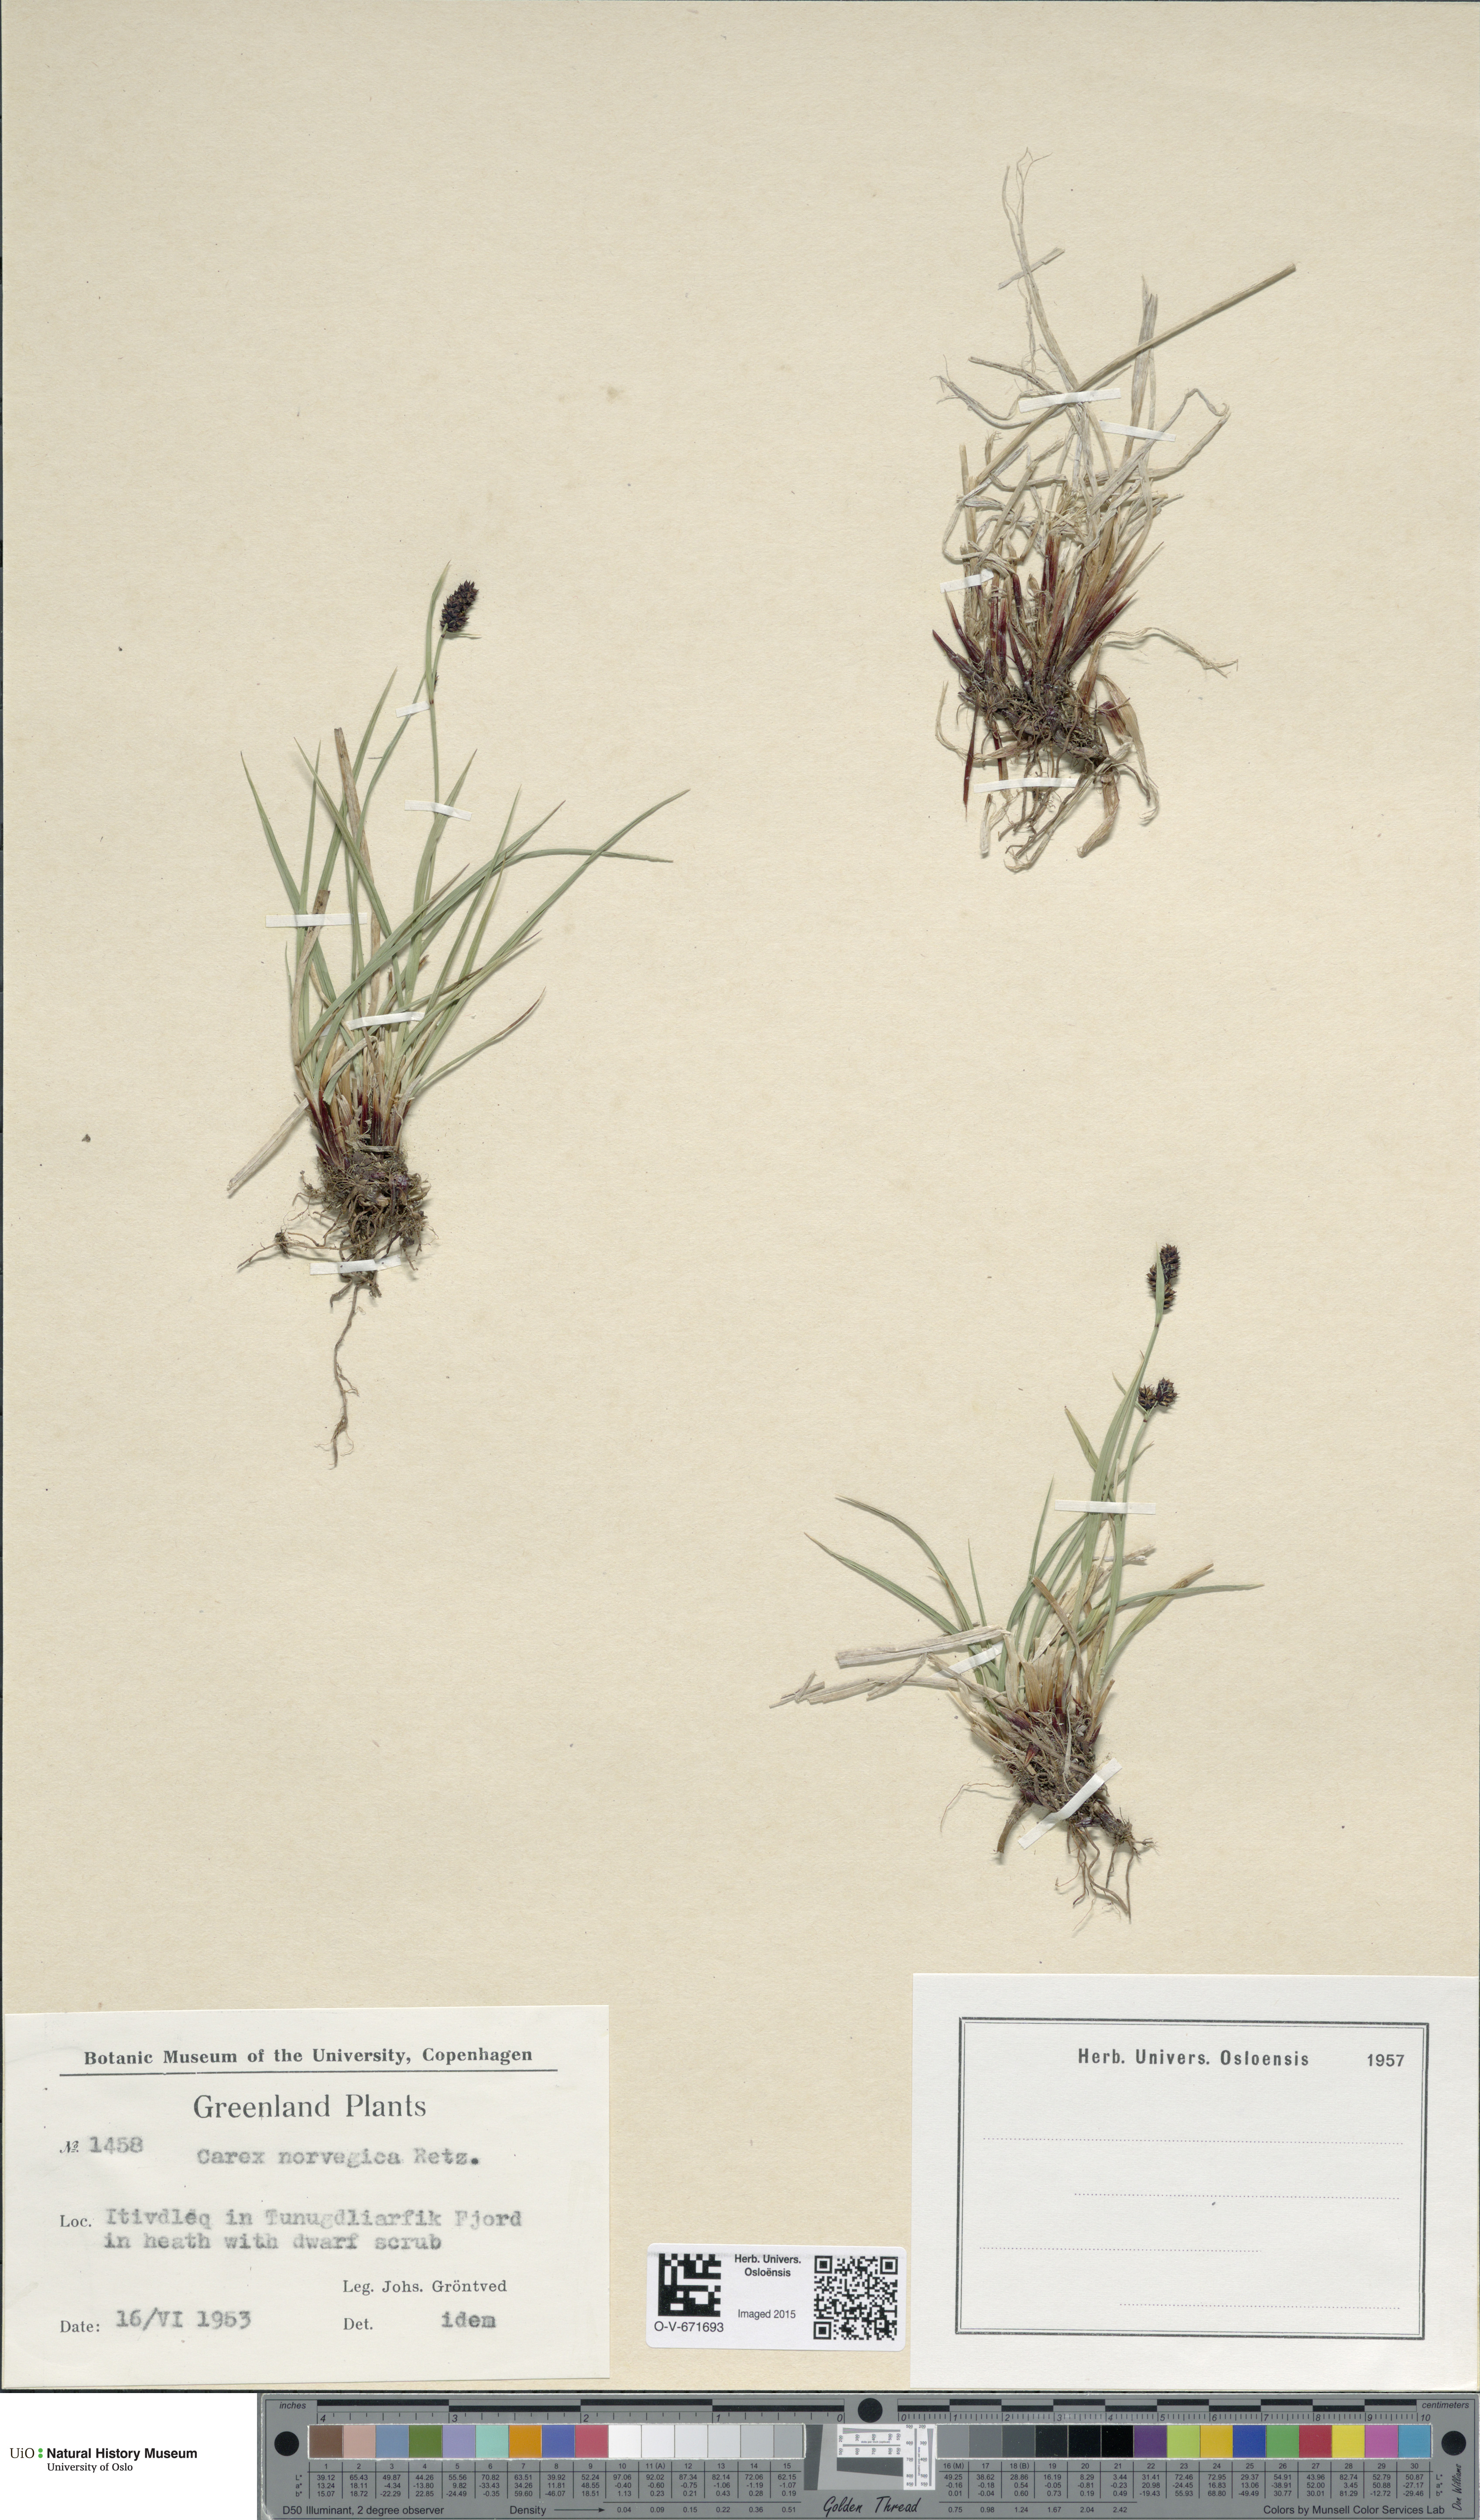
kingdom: Plantae
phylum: Tracheophyta
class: Liliopsida
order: Poales
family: Cyperaceae
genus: Carex
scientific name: Carex norvegica
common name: Close-headed alpine-sedge
